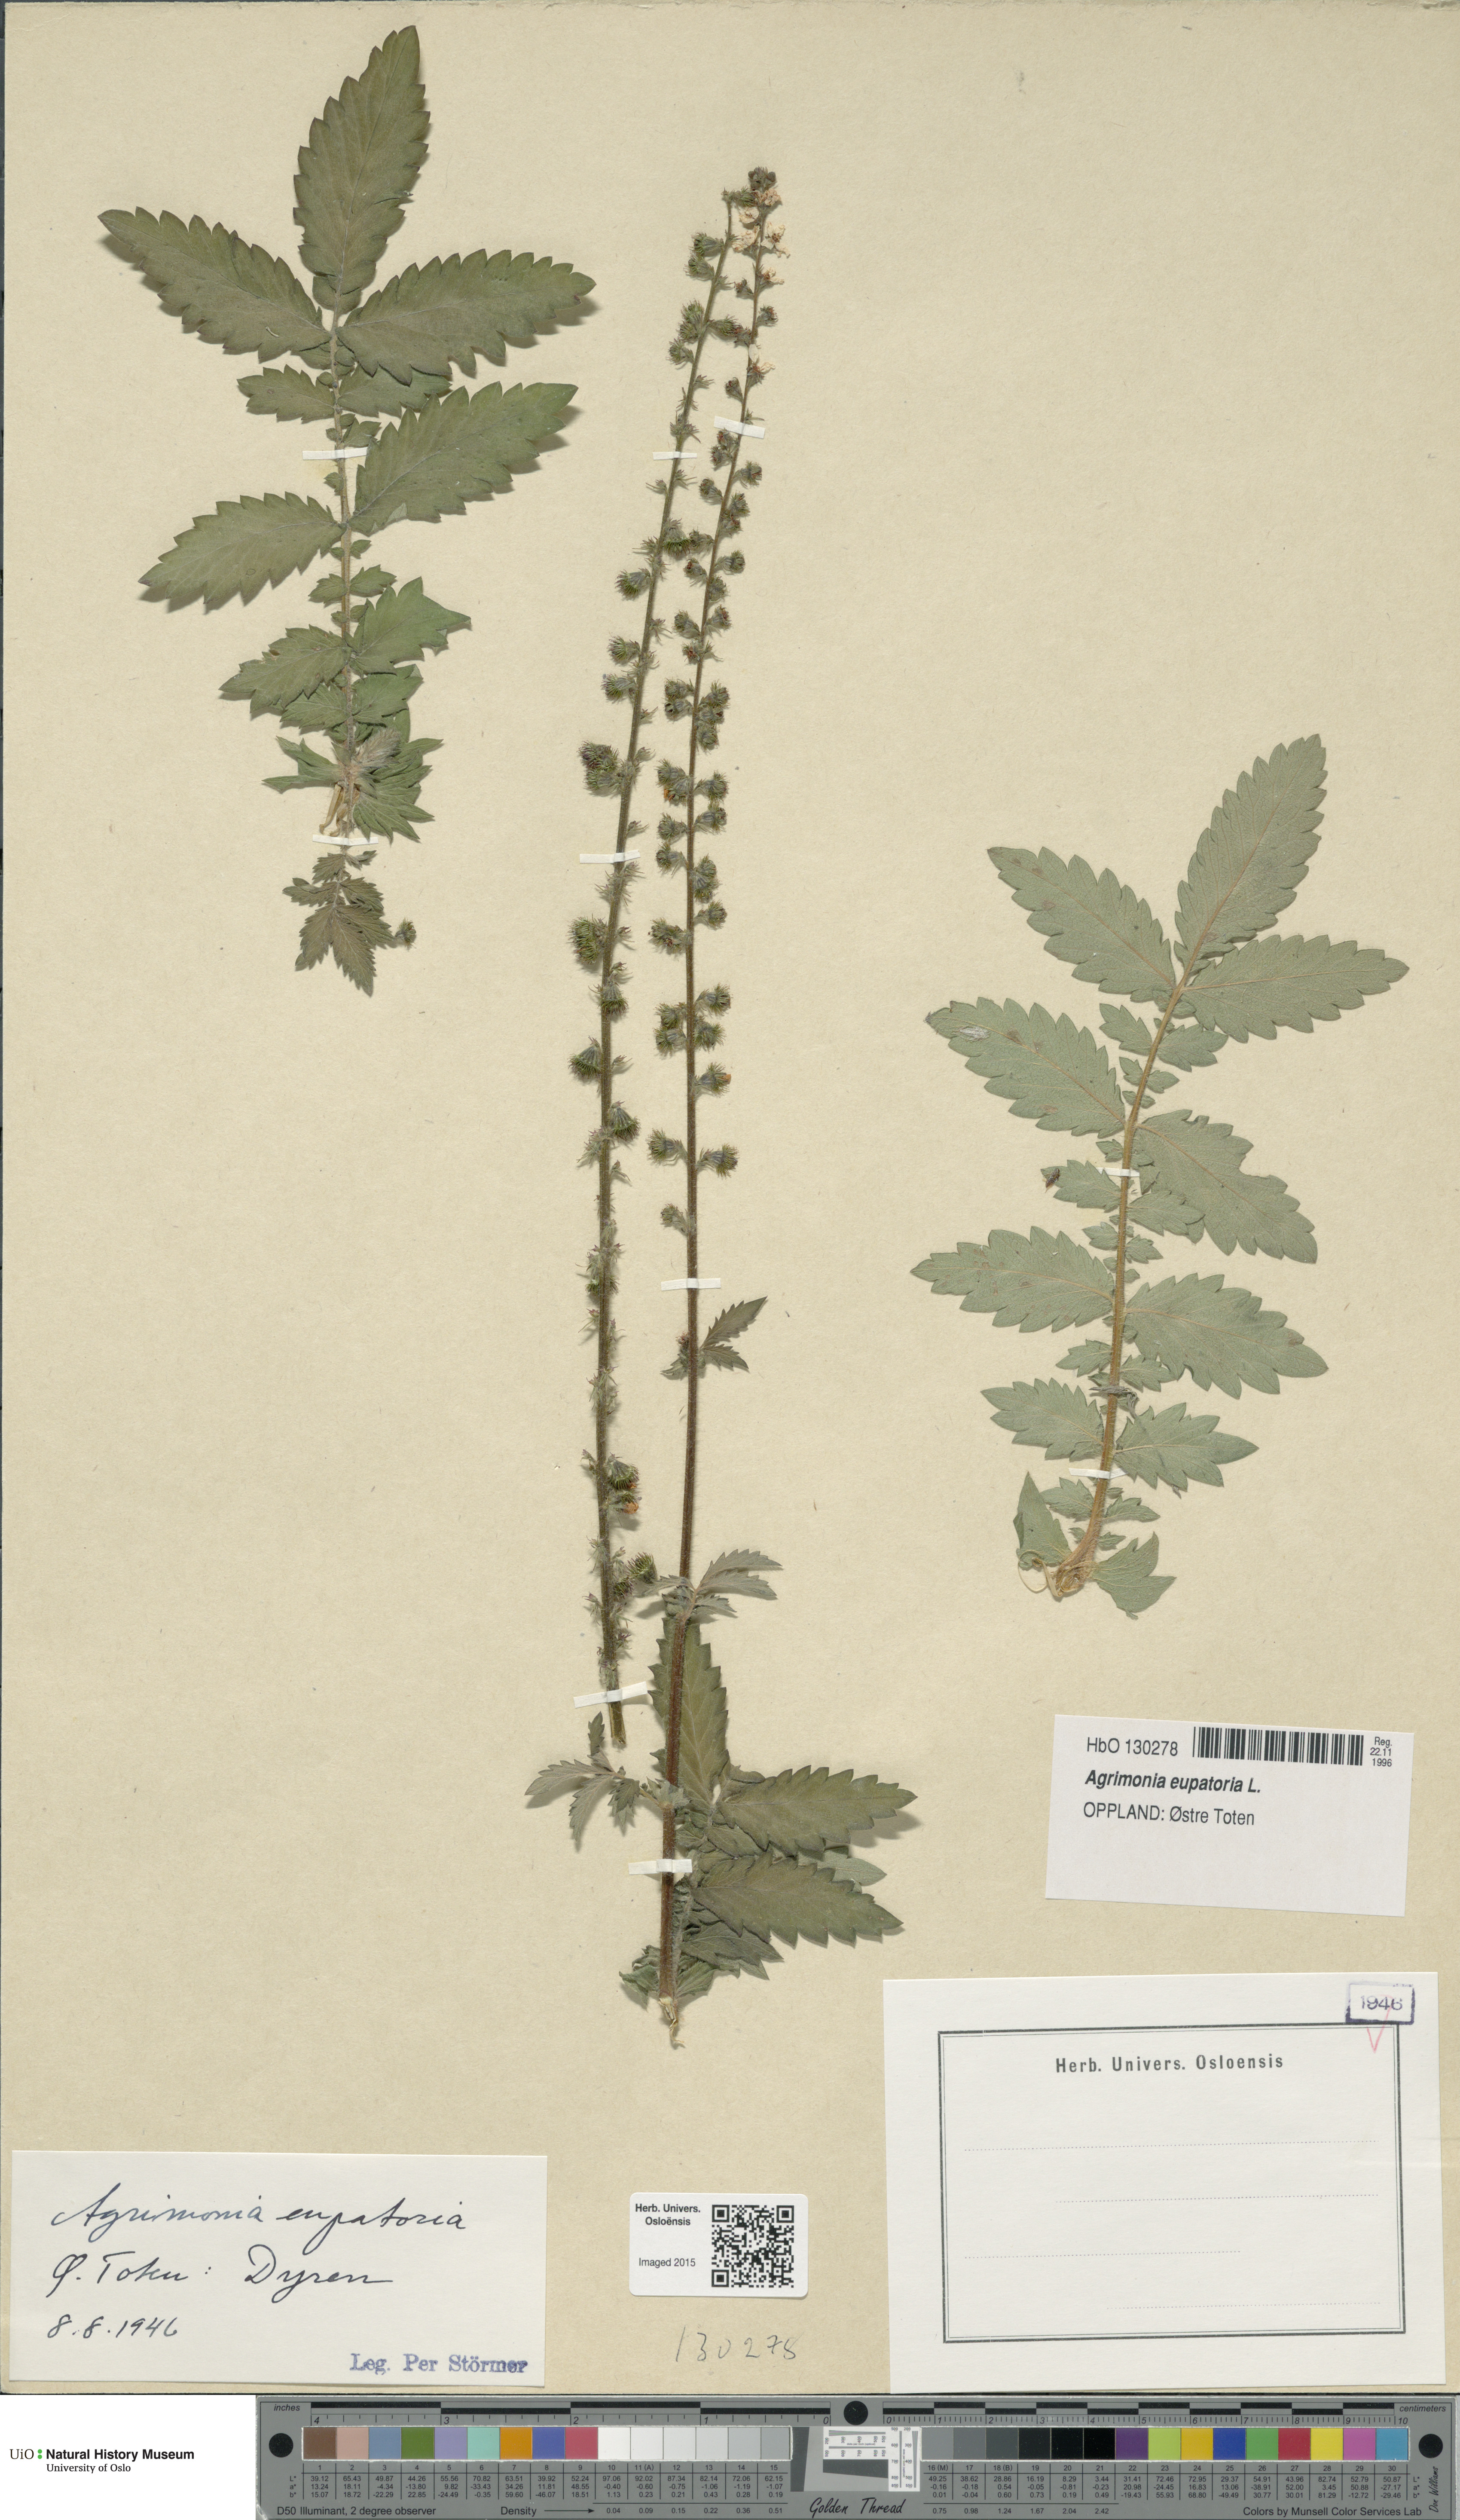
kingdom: Plantae
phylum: Tracheophyta
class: Magnoliopsida
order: Rosales
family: Rosaceae
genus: Agrimonia
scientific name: Agrimonia eupatoria
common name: Agrimony
